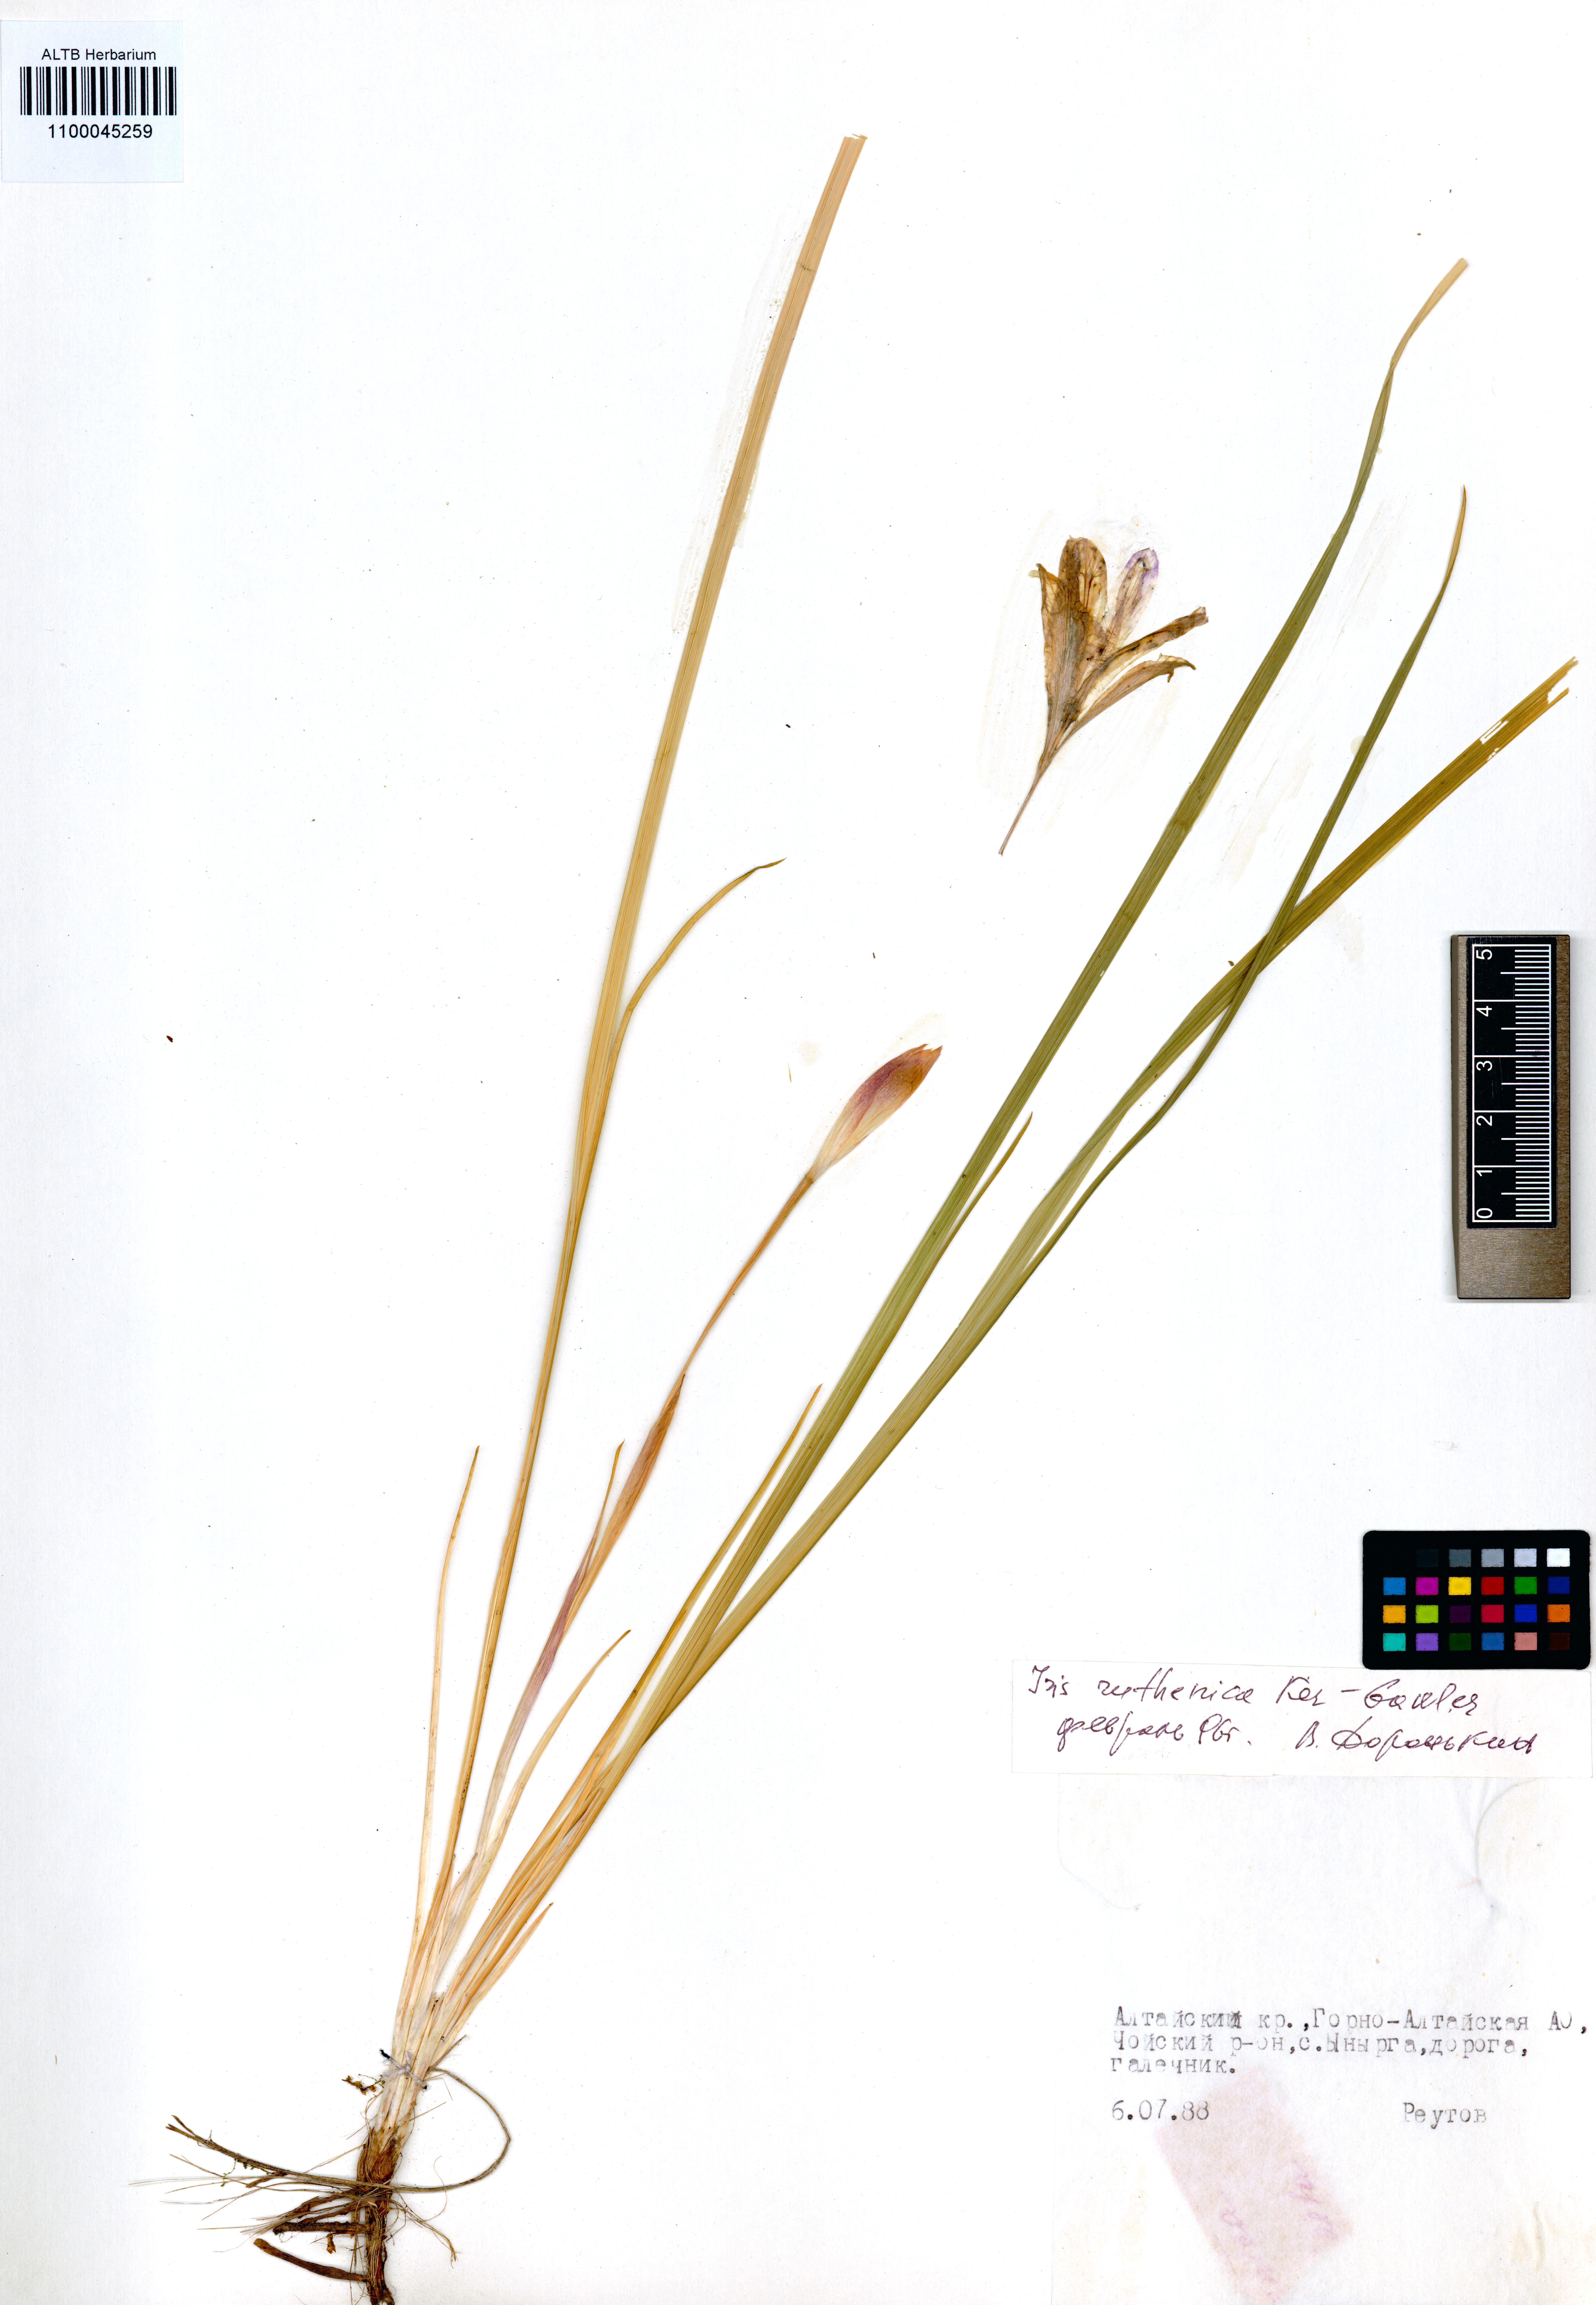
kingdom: Plantae
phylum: Tracheophyta
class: Liliopsida
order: Asparagales
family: Iridaceae
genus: Iris
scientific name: Iris ruthenica
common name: Purple-bract iris
